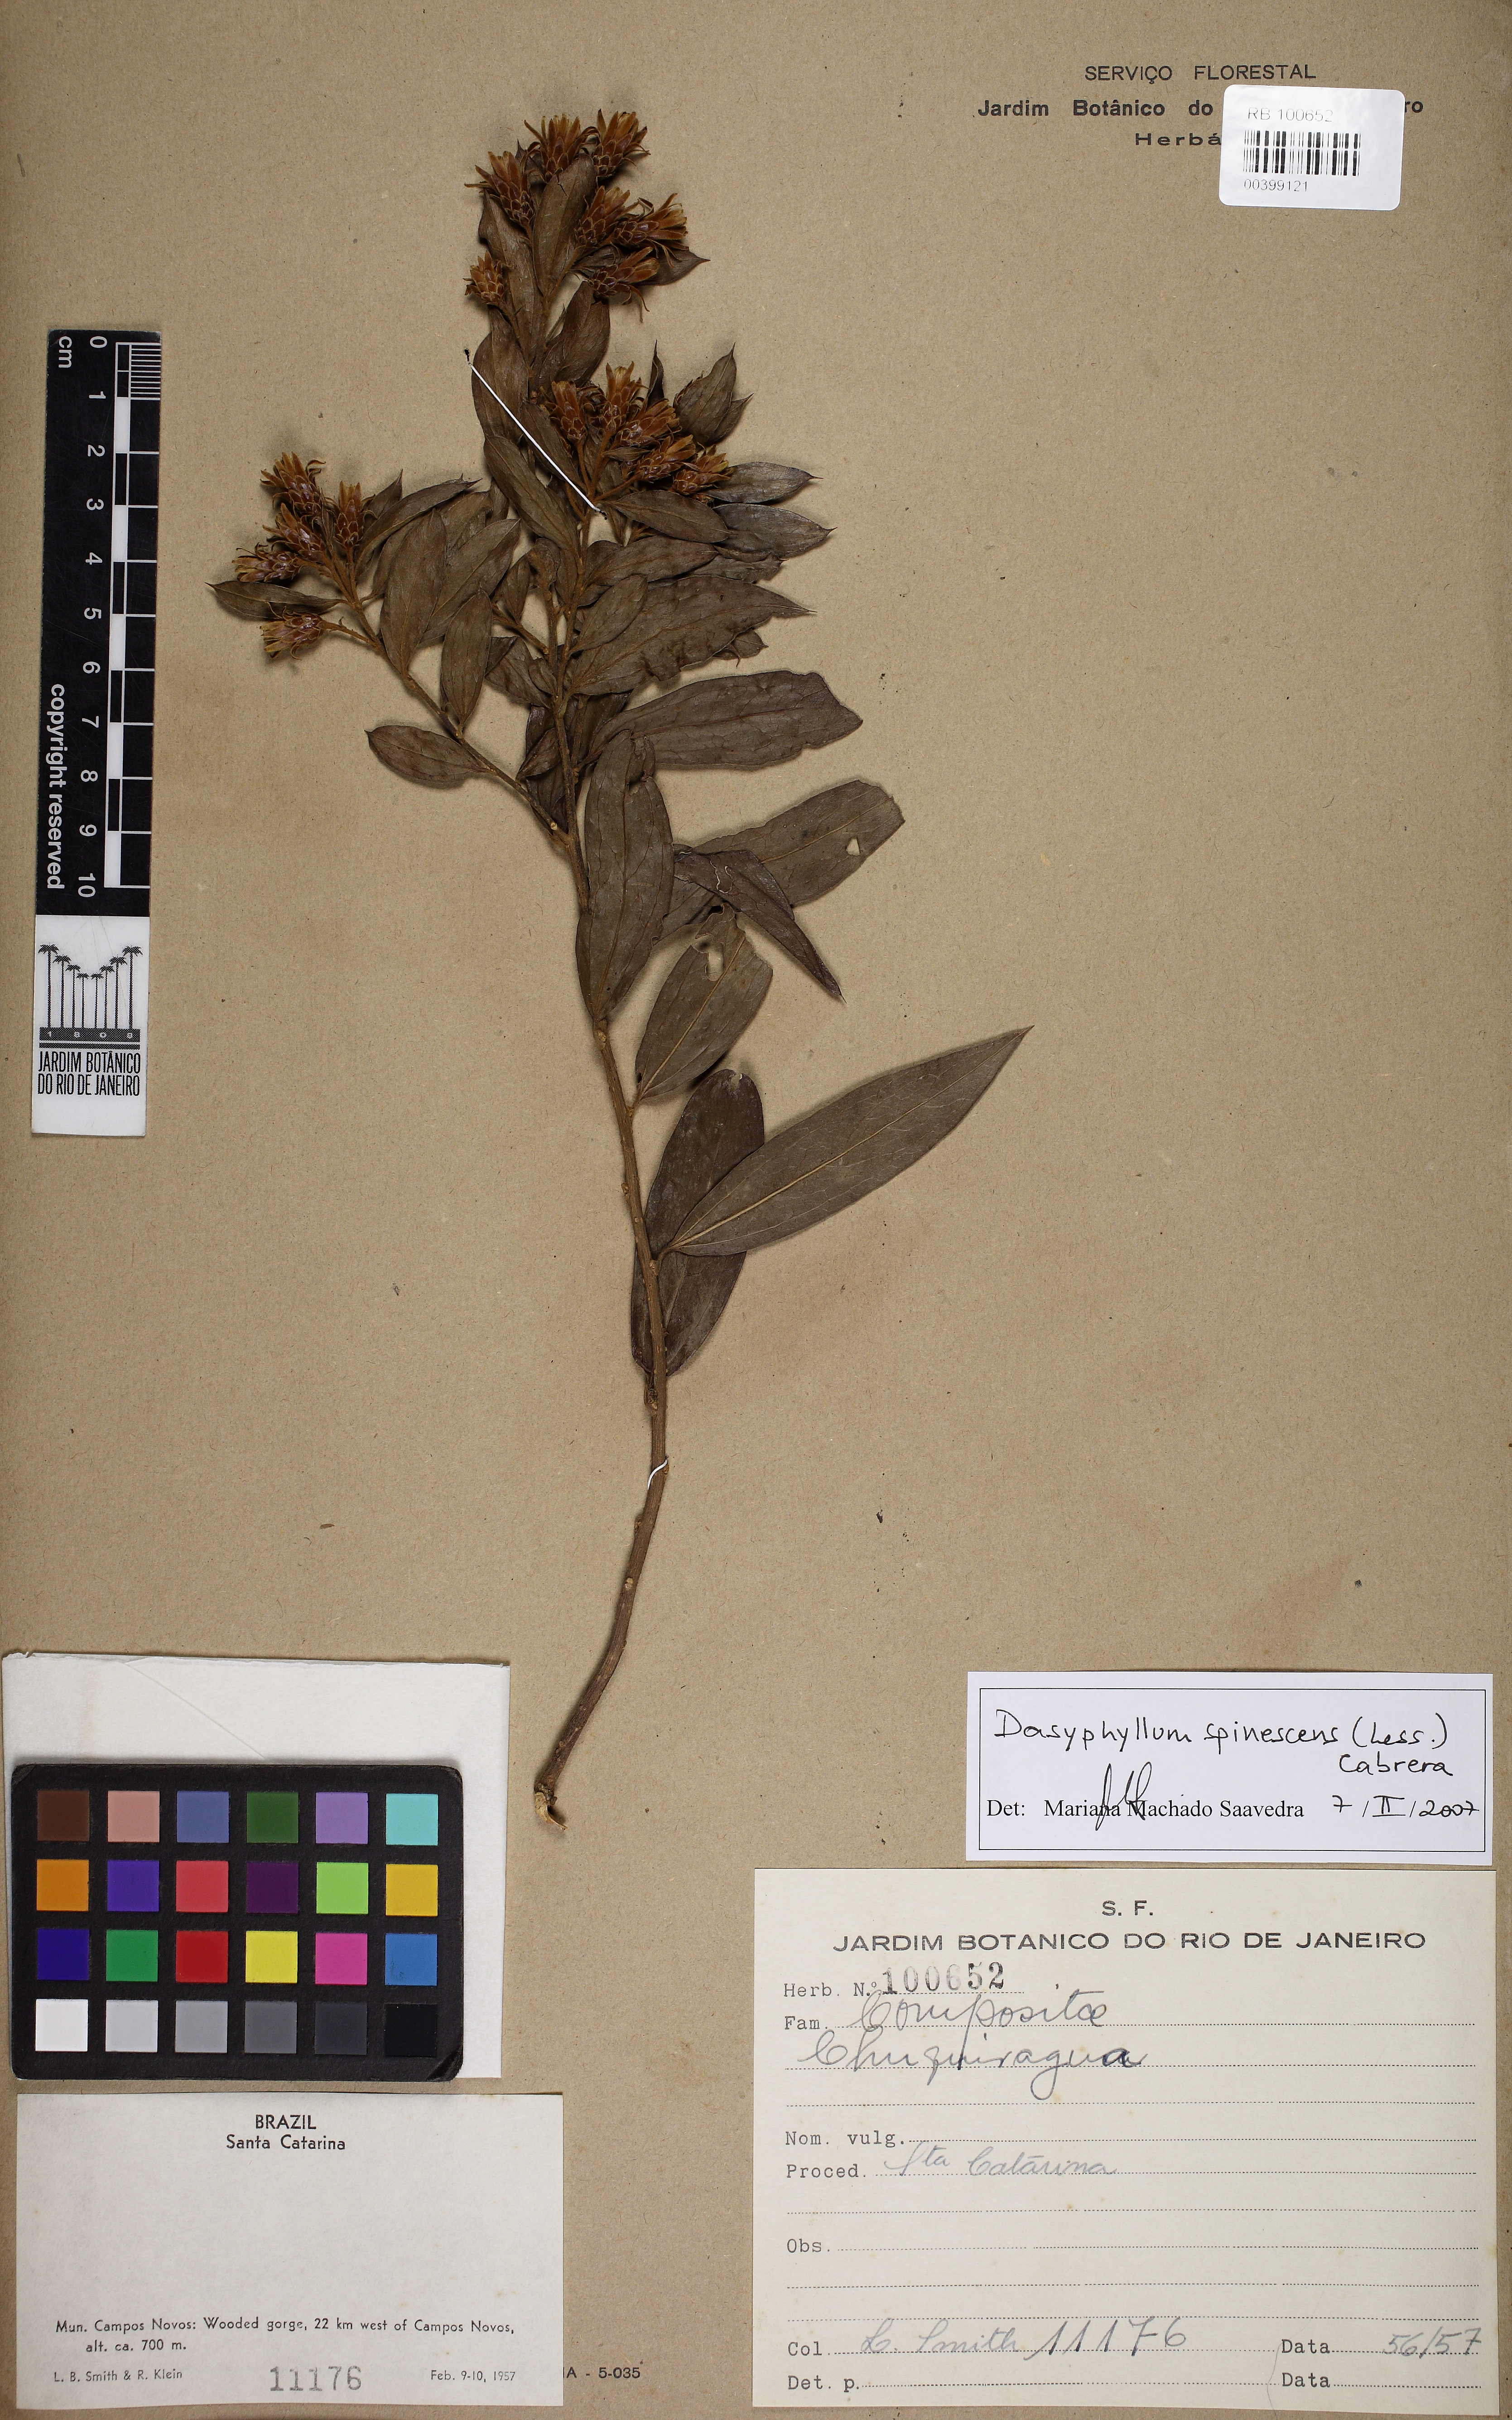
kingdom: Plantae
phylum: Tracheophyta
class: Magnoliopsida
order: Asterales
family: Asteraceae
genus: Dasyphyllum
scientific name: Dasyphyllum spinescens
